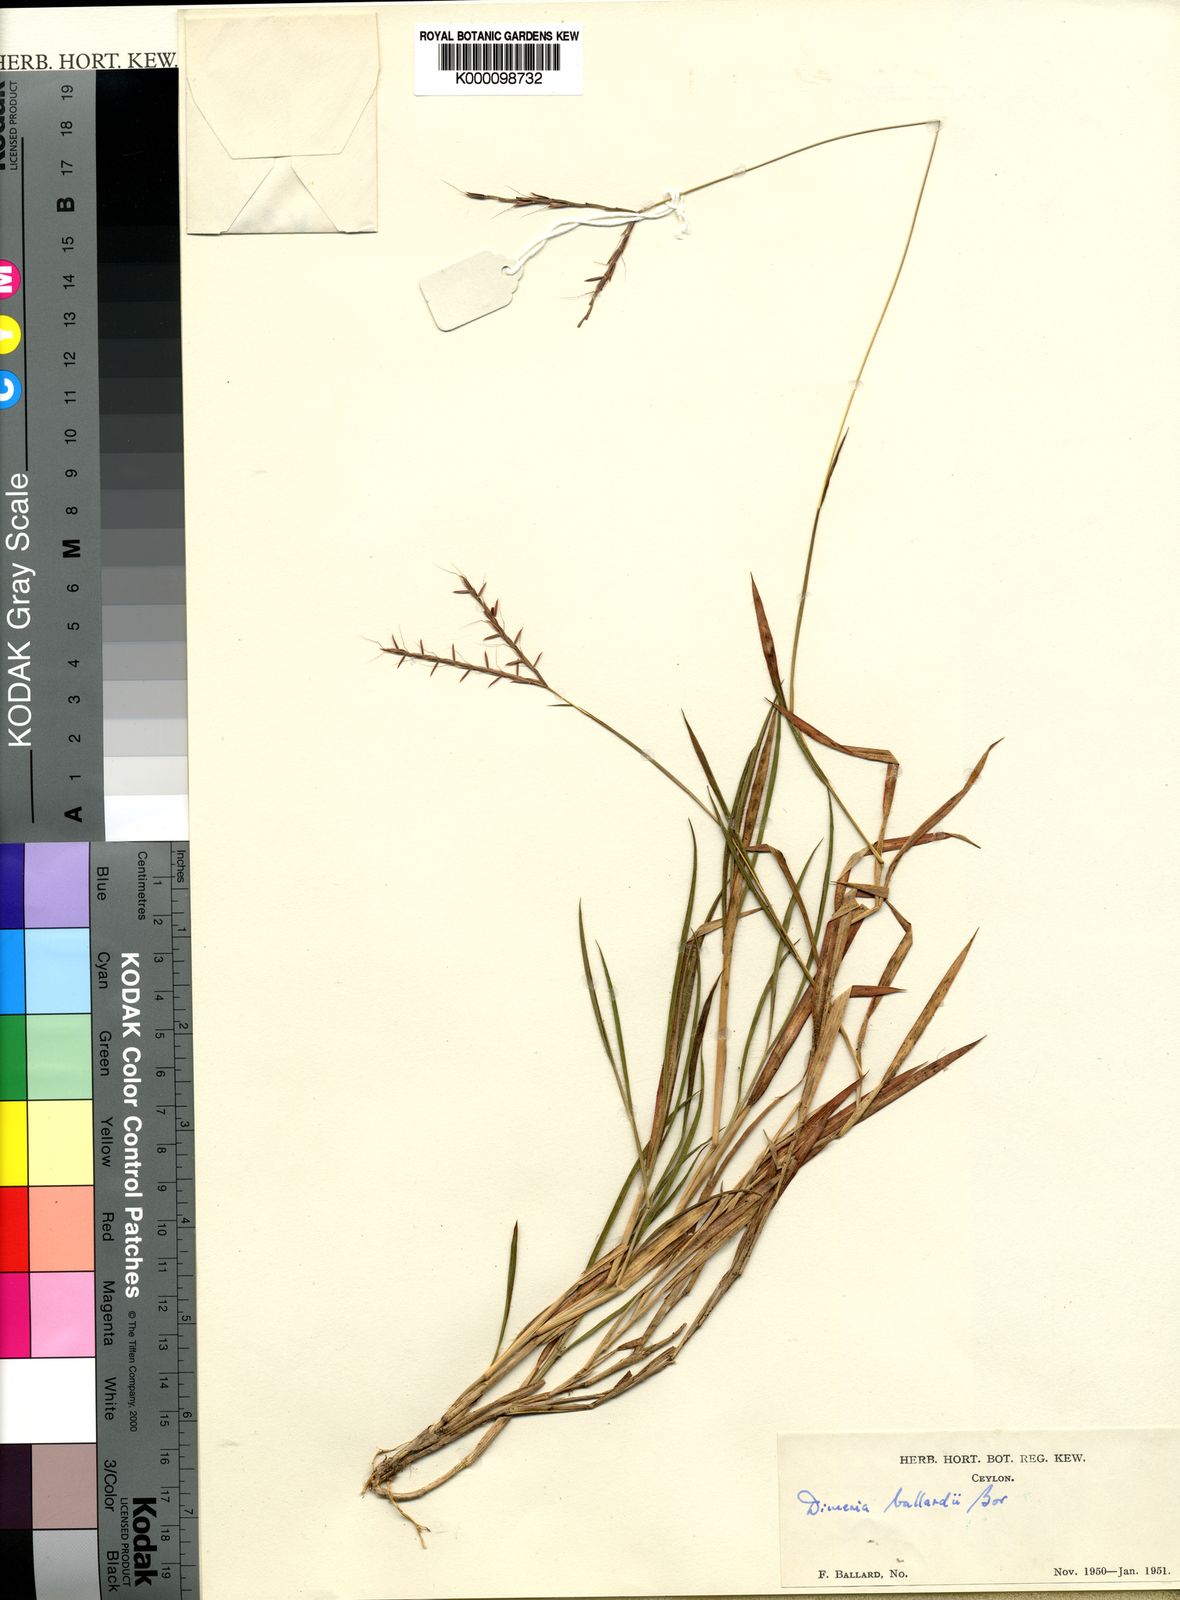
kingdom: Plantae
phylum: Tracheophyta
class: Liliopsida
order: Poales
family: Poaceae
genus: Dimeria
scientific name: Dimeria ballardii
